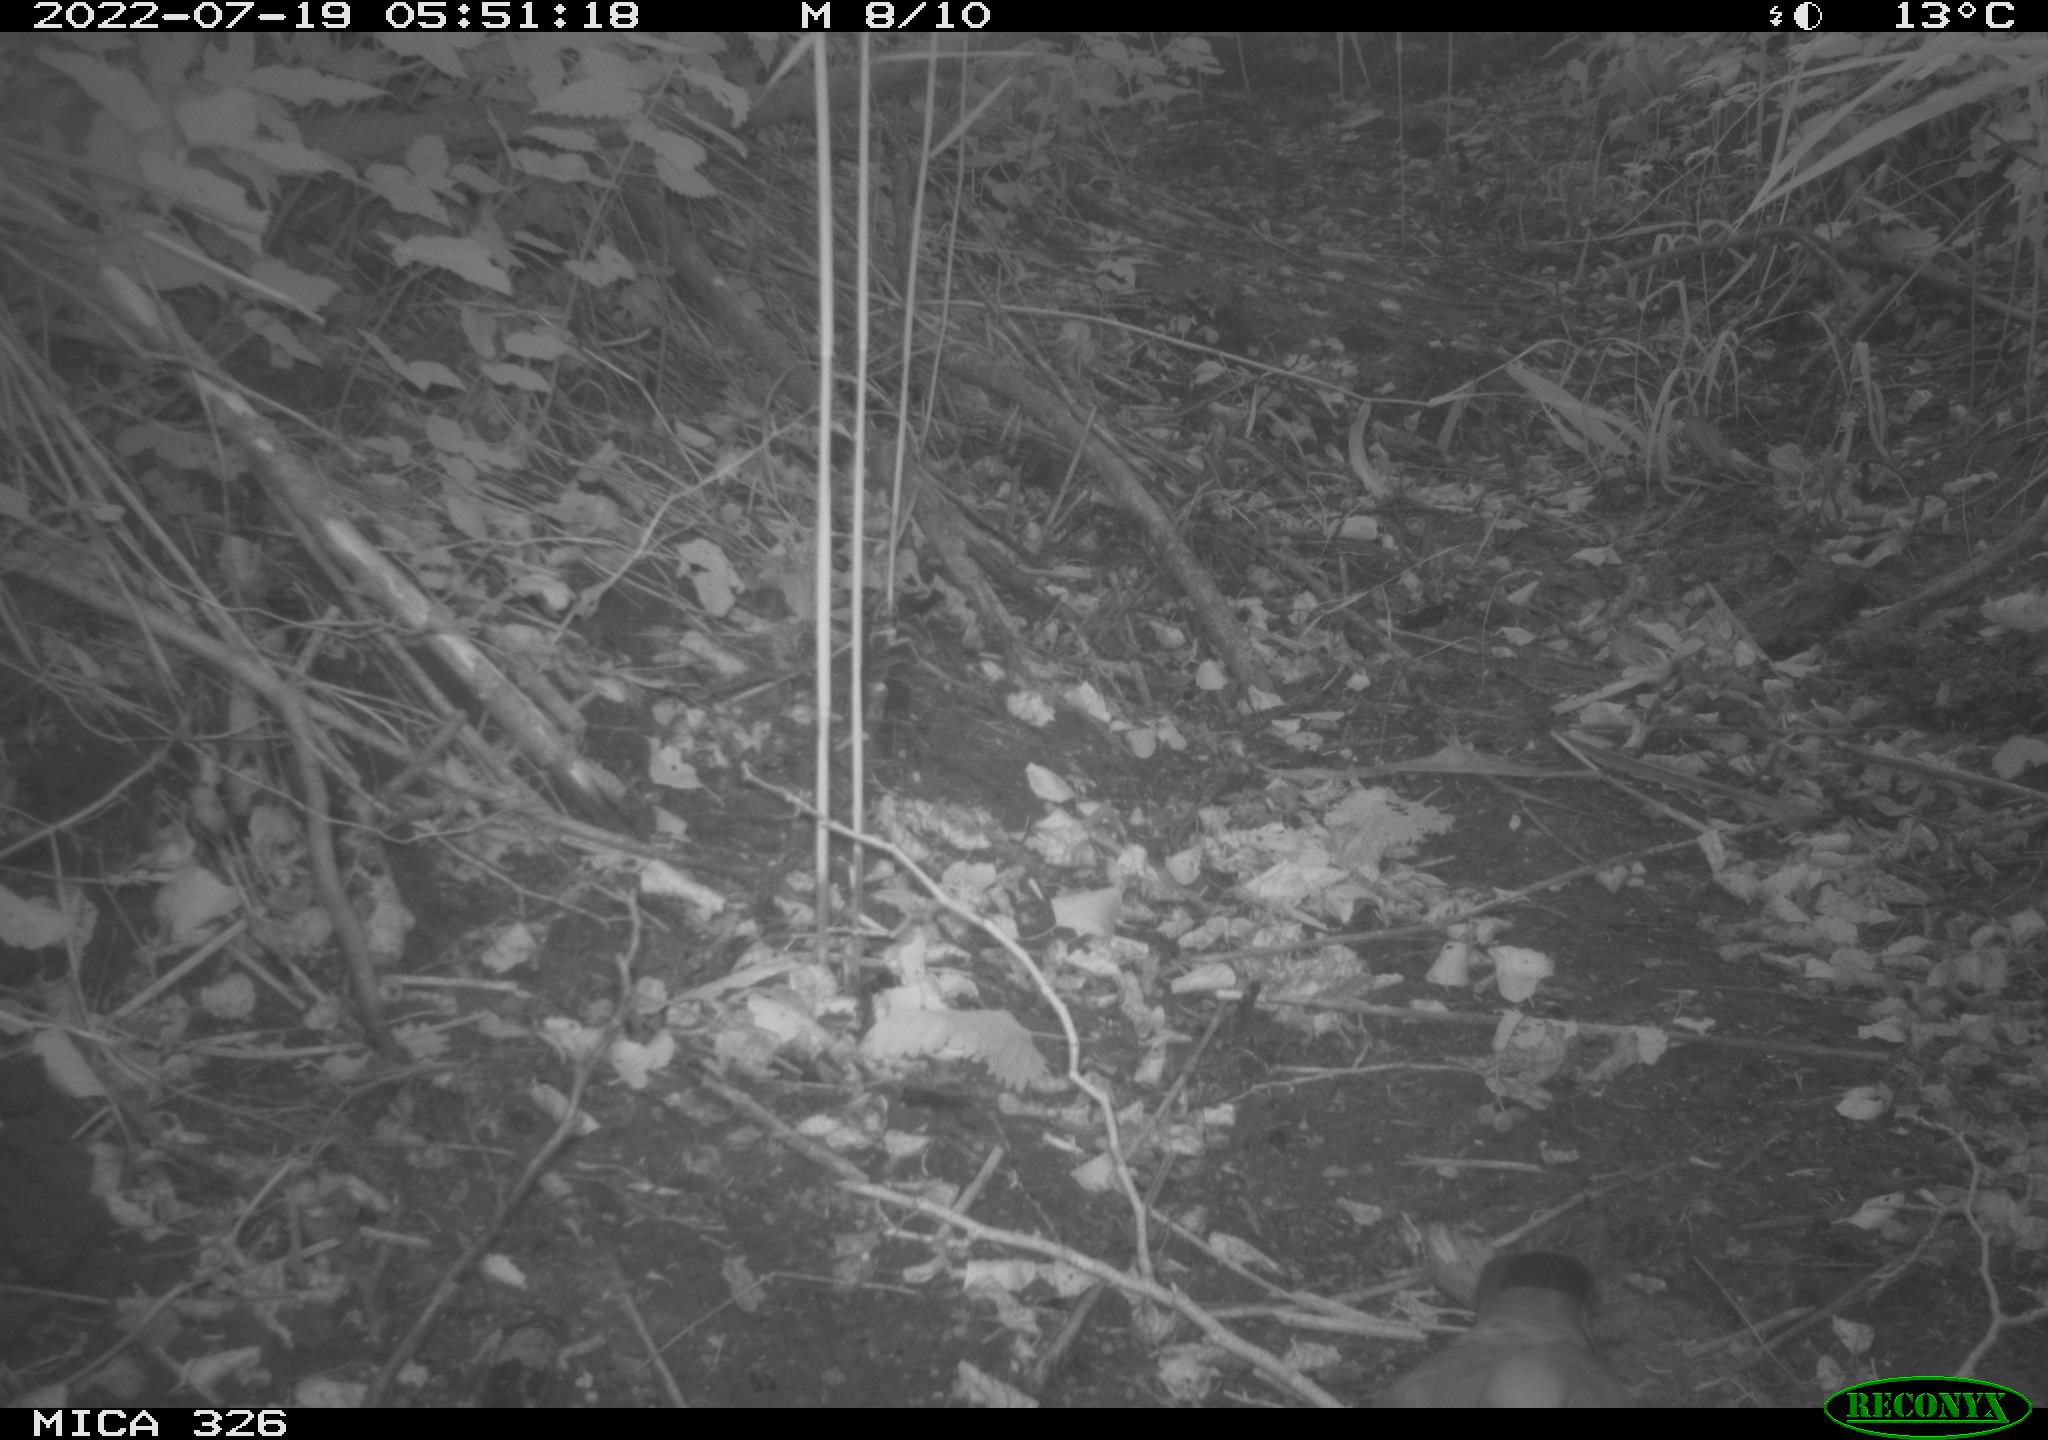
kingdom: Animalia
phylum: Chordata
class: Aves
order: Columbiformes
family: Columbidae
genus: Columba
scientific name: Columba palumbus
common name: Common wood pigeon
